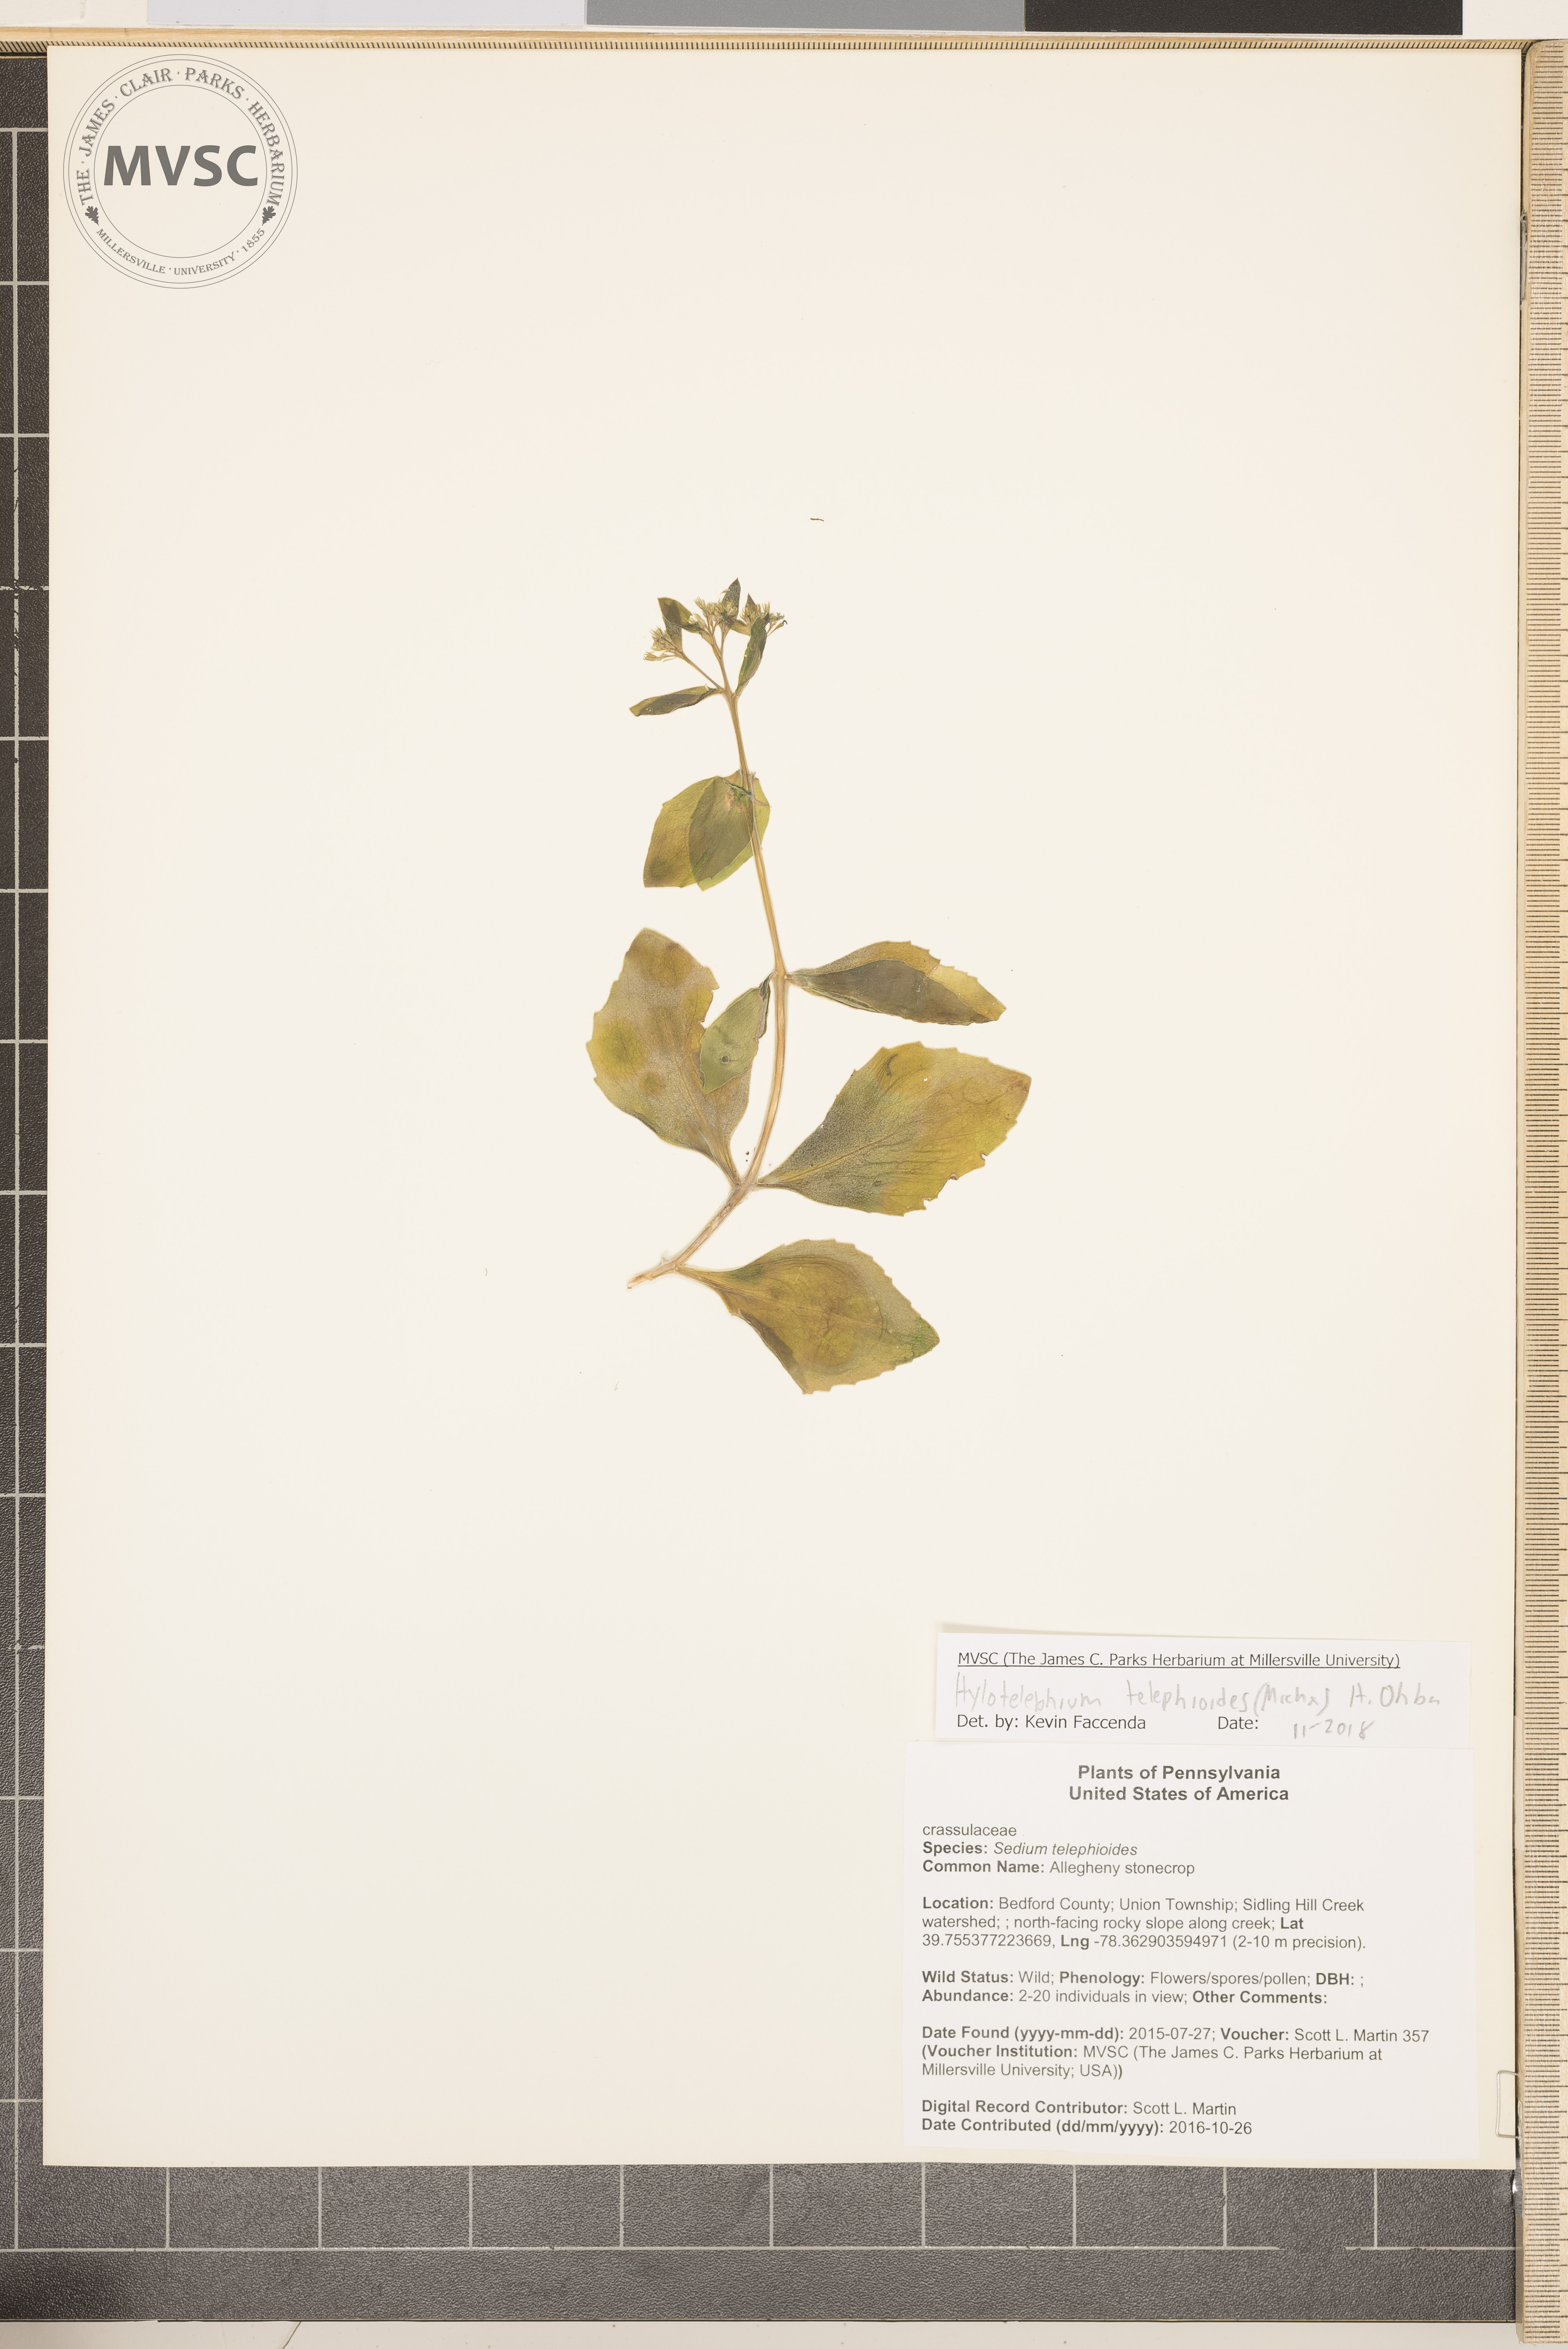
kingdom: Plantae
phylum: Tracheophyta
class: Magnoliopsida
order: Saxifragales
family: Crassulaceae
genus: Hylotelephium
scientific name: Hylotelephium telephioides
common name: Allegheny stonecrop
